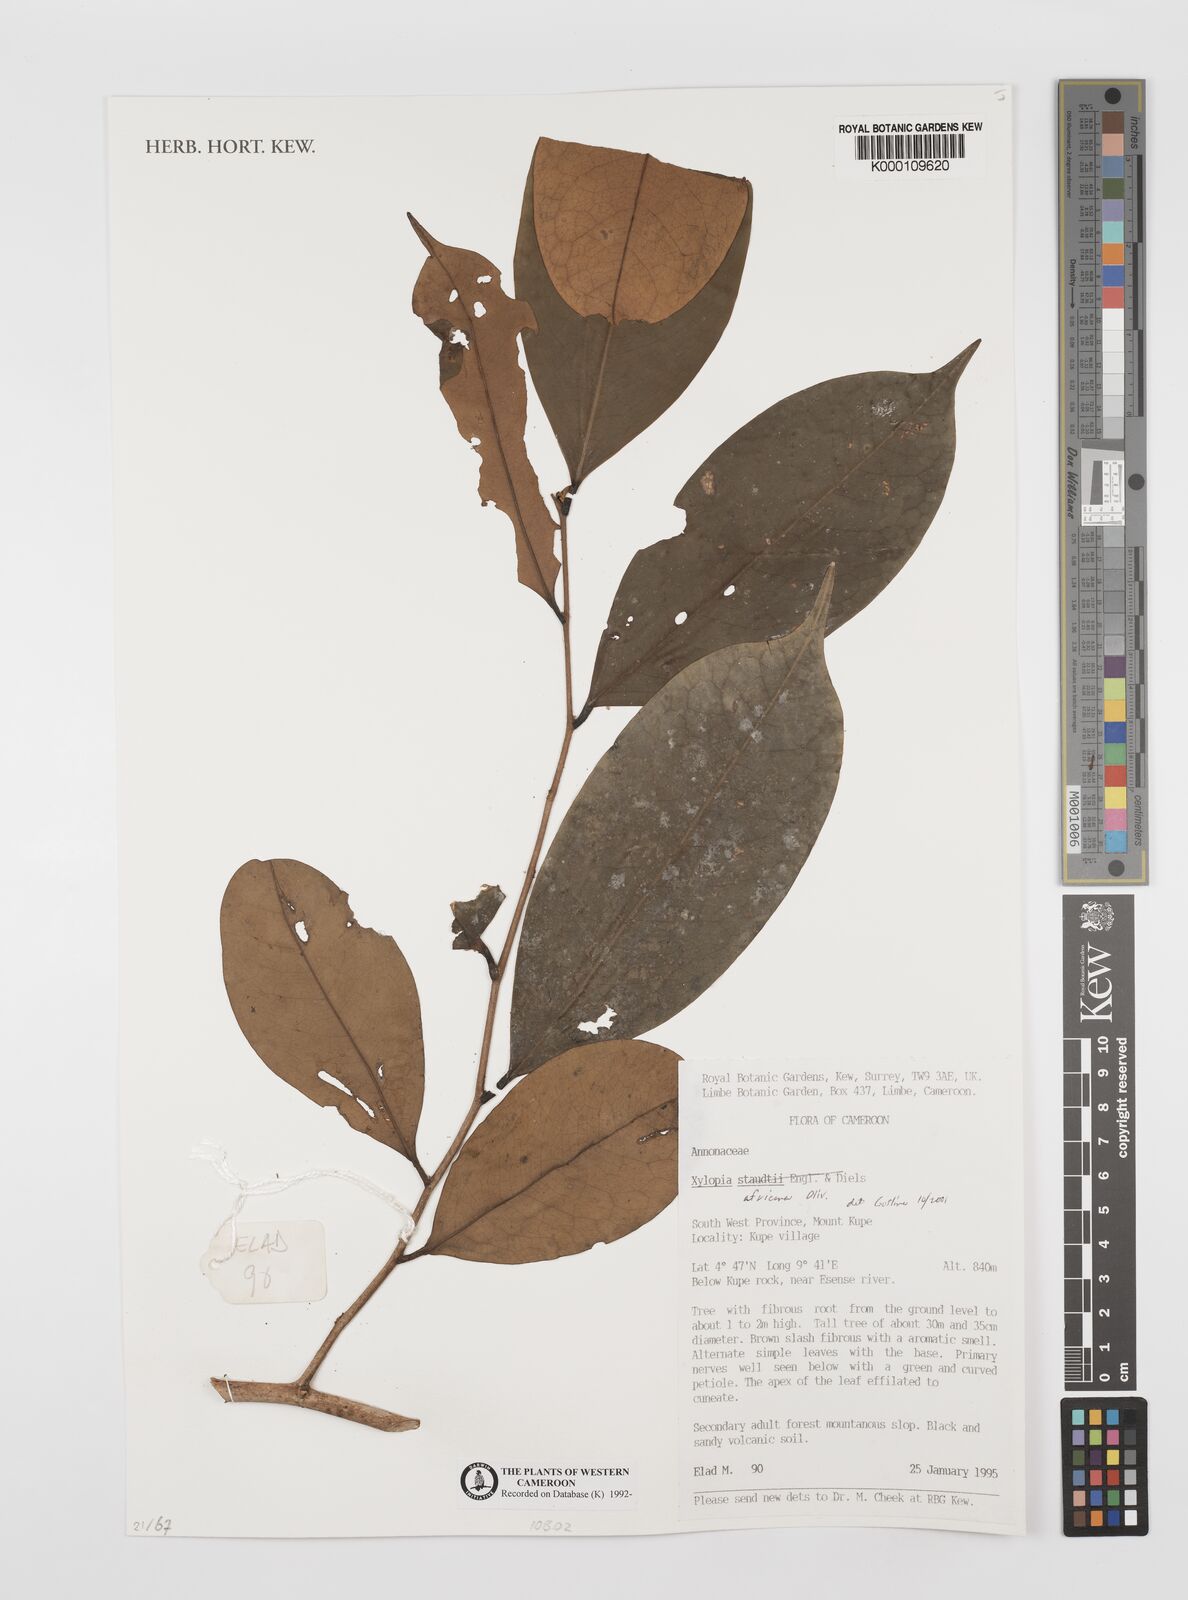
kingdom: Plantae
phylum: Tracheophyta
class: Magnoliopsida
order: Magnoliales
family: Annonaceae
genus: Xylopia
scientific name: Xylopia africana
